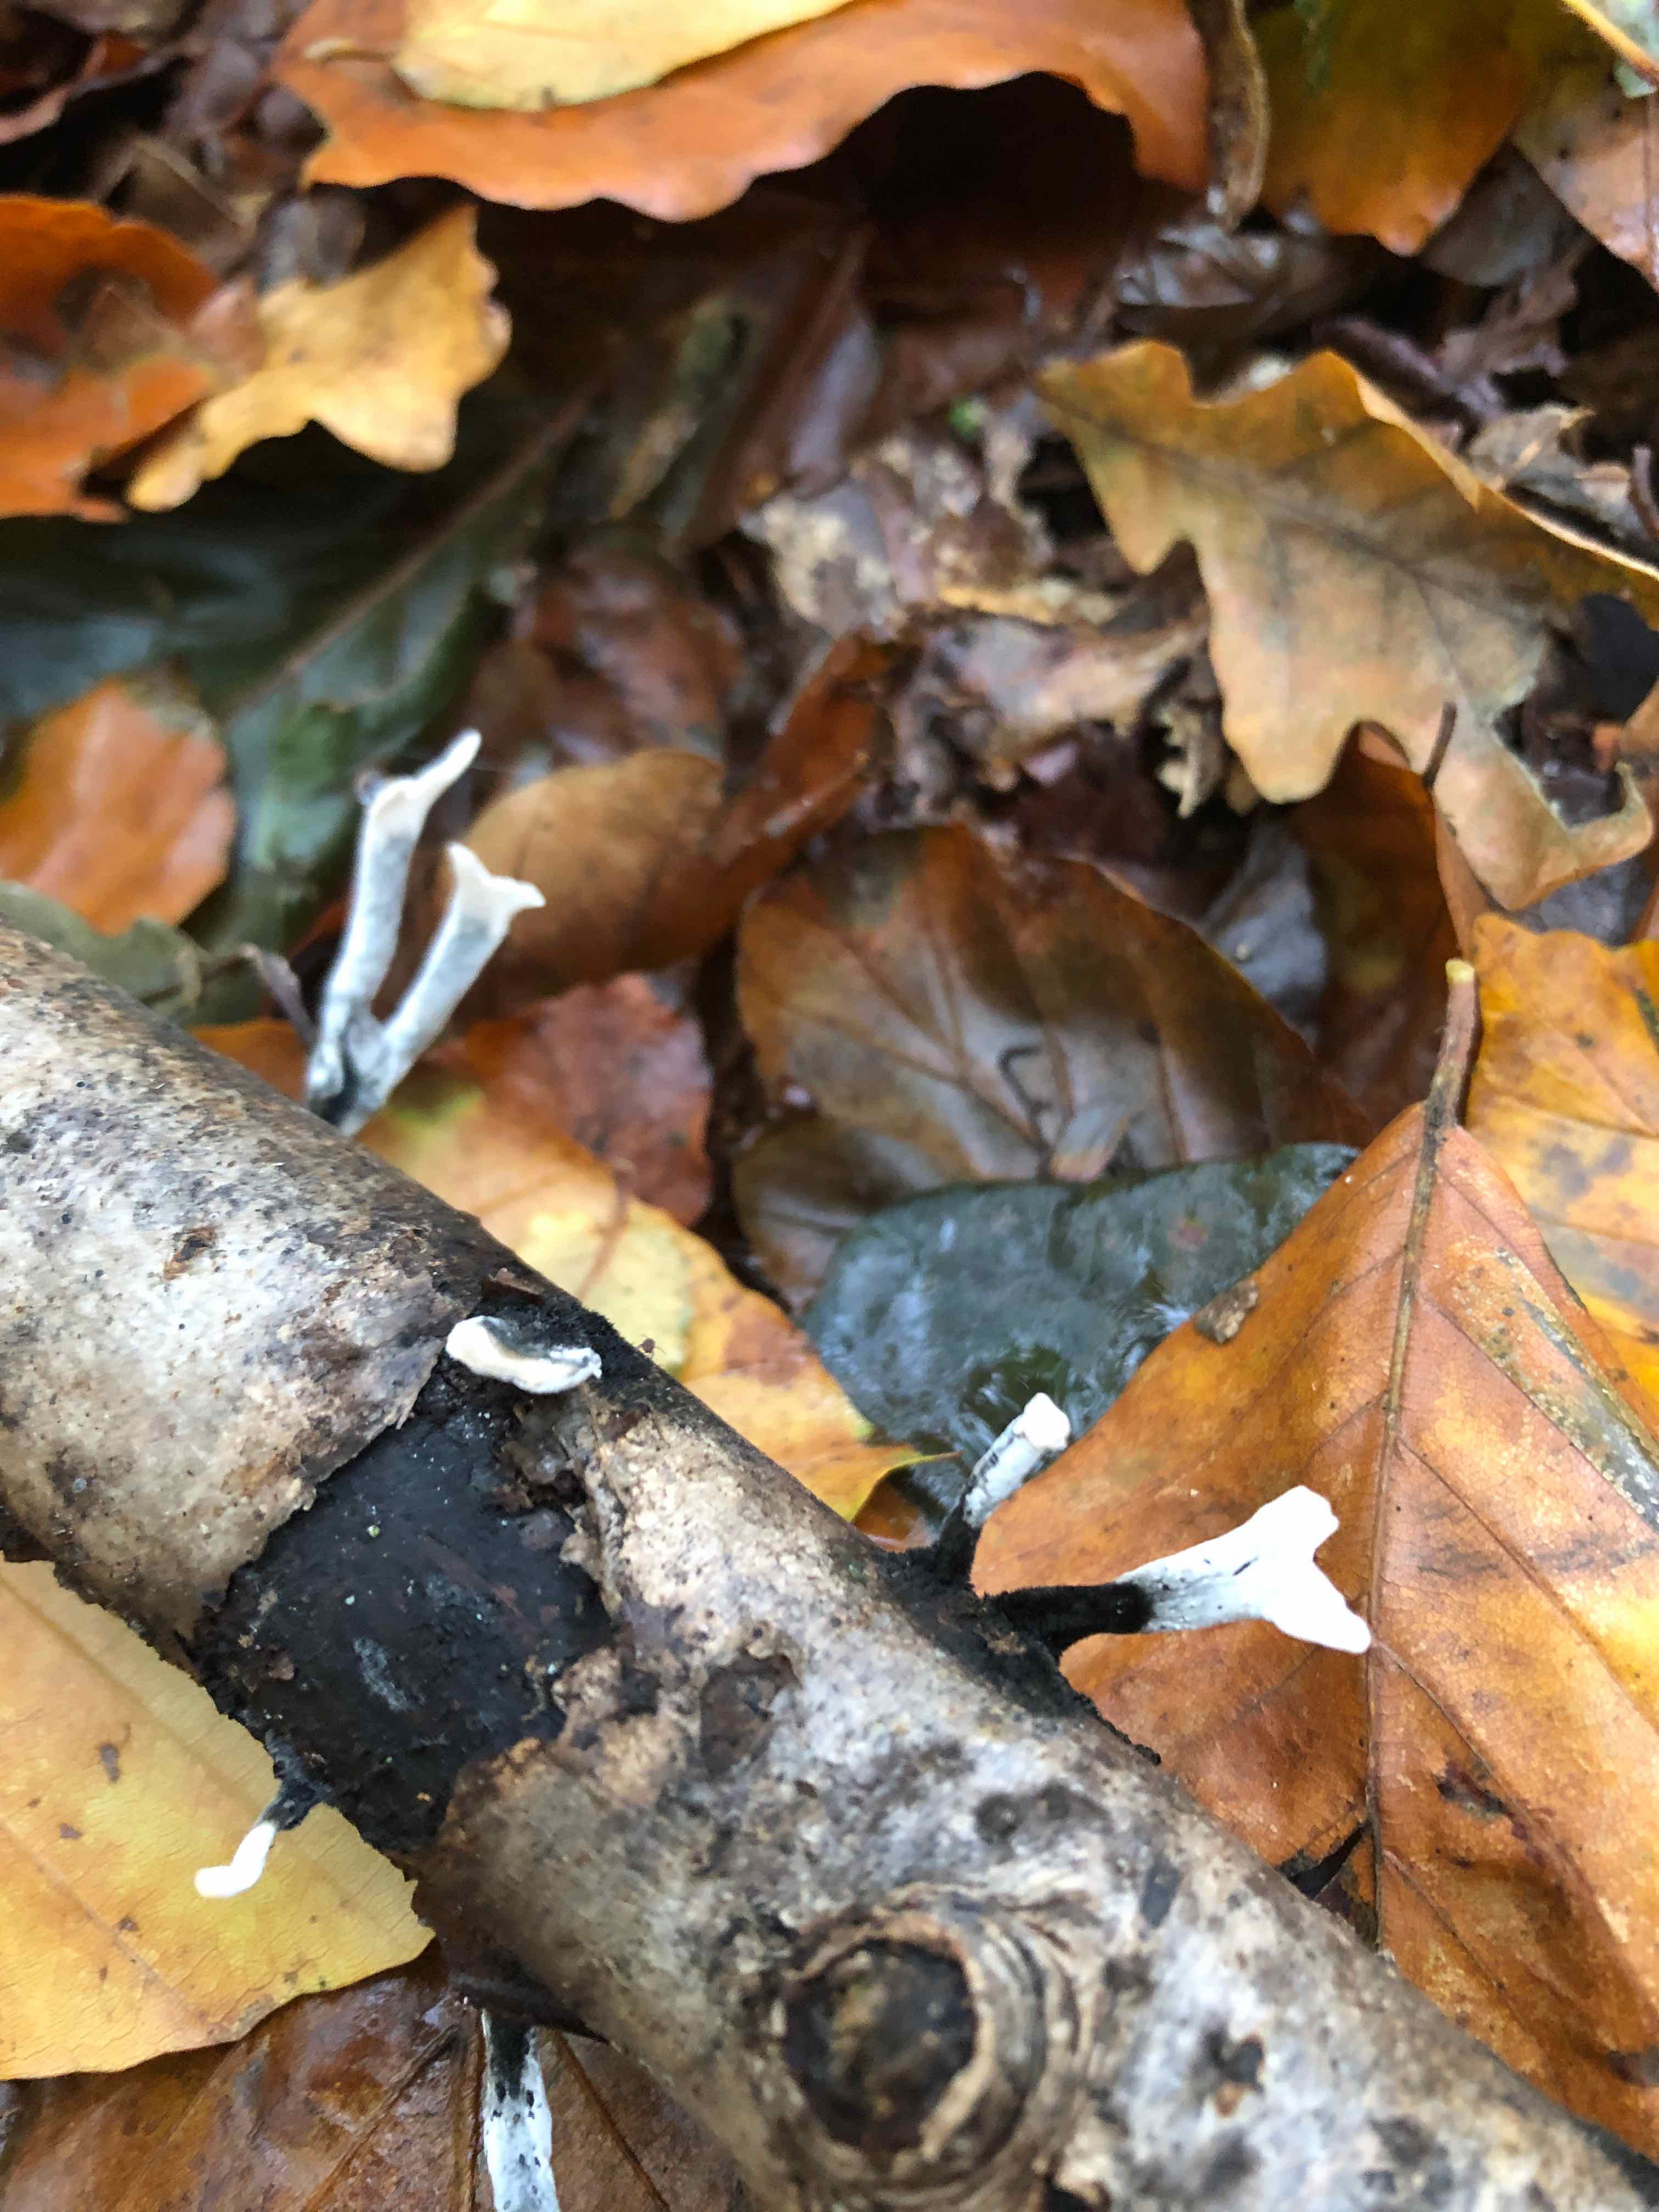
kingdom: Fungi
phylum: Ascomycota
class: Sordariomycetes
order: Xylariales
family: Xylariaceae
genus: Xylaria
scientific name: Xylaria hypoxylon
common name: grenet stødsvamp
